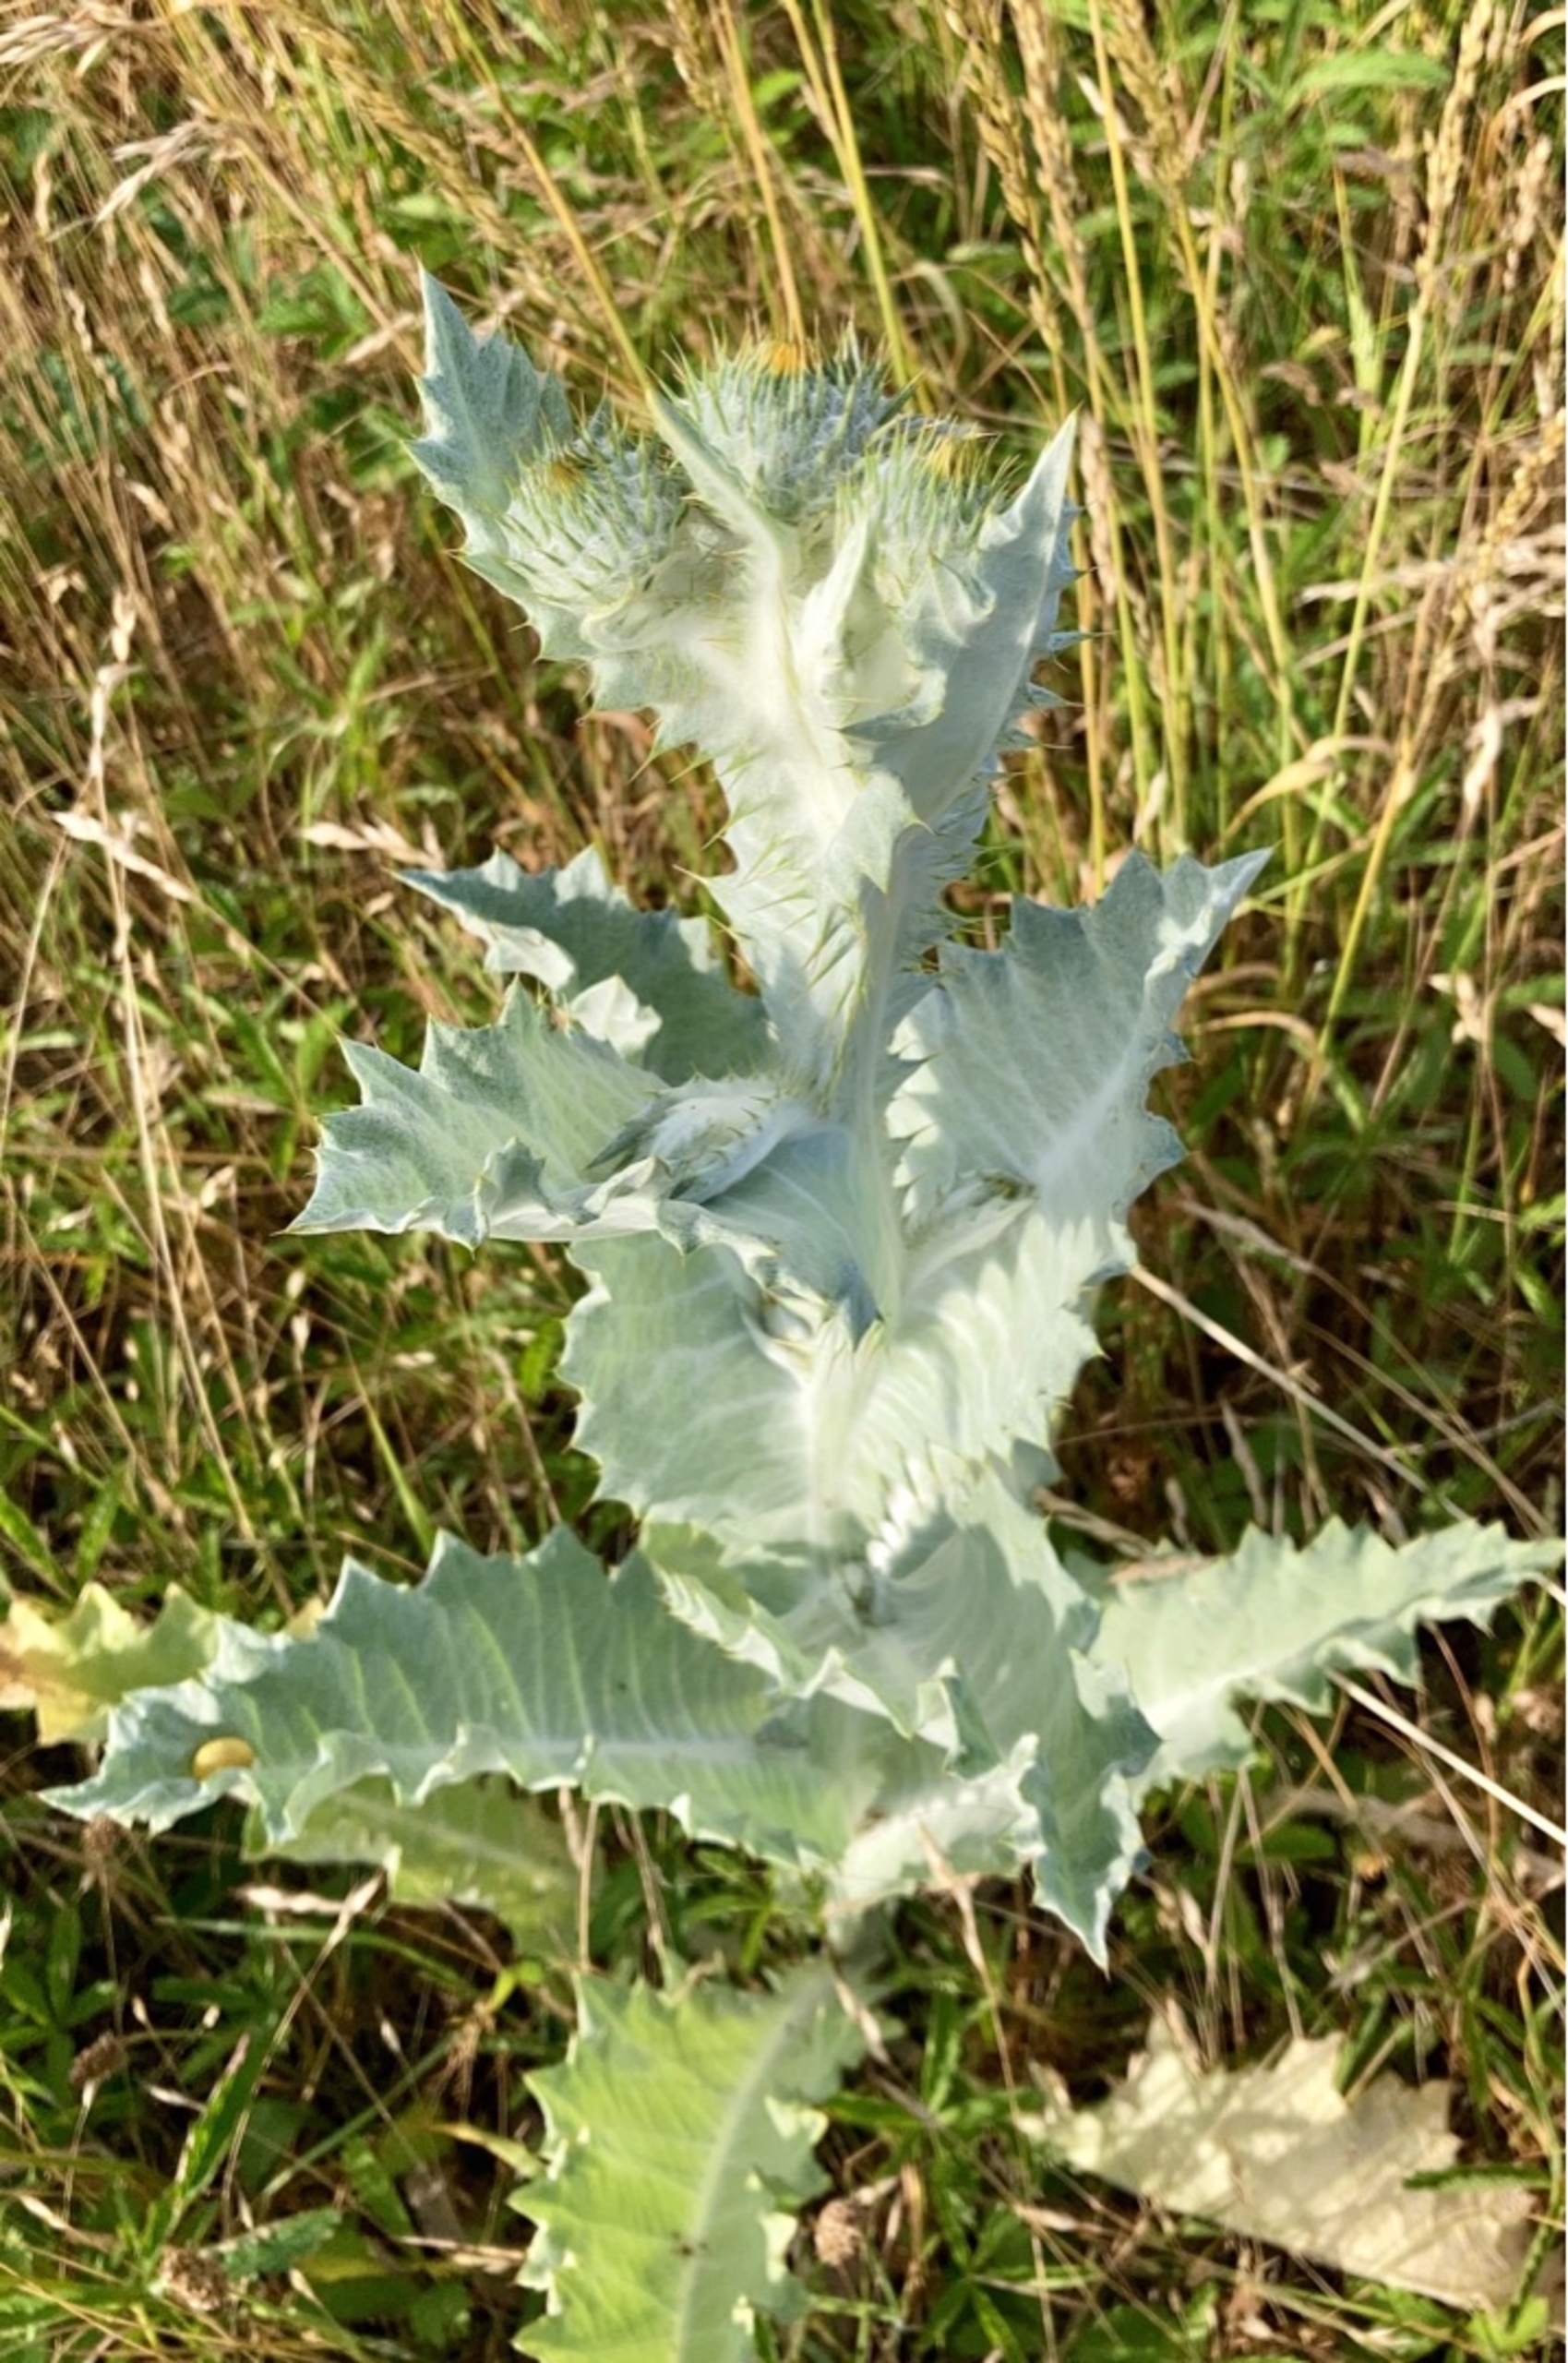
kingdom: Plantae
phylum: Tracheophyta
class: Magnoliopsida
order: Asterales
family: Asteraceae
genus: Onopordum
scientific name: Onopordum acanthium
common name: Æselfoder
